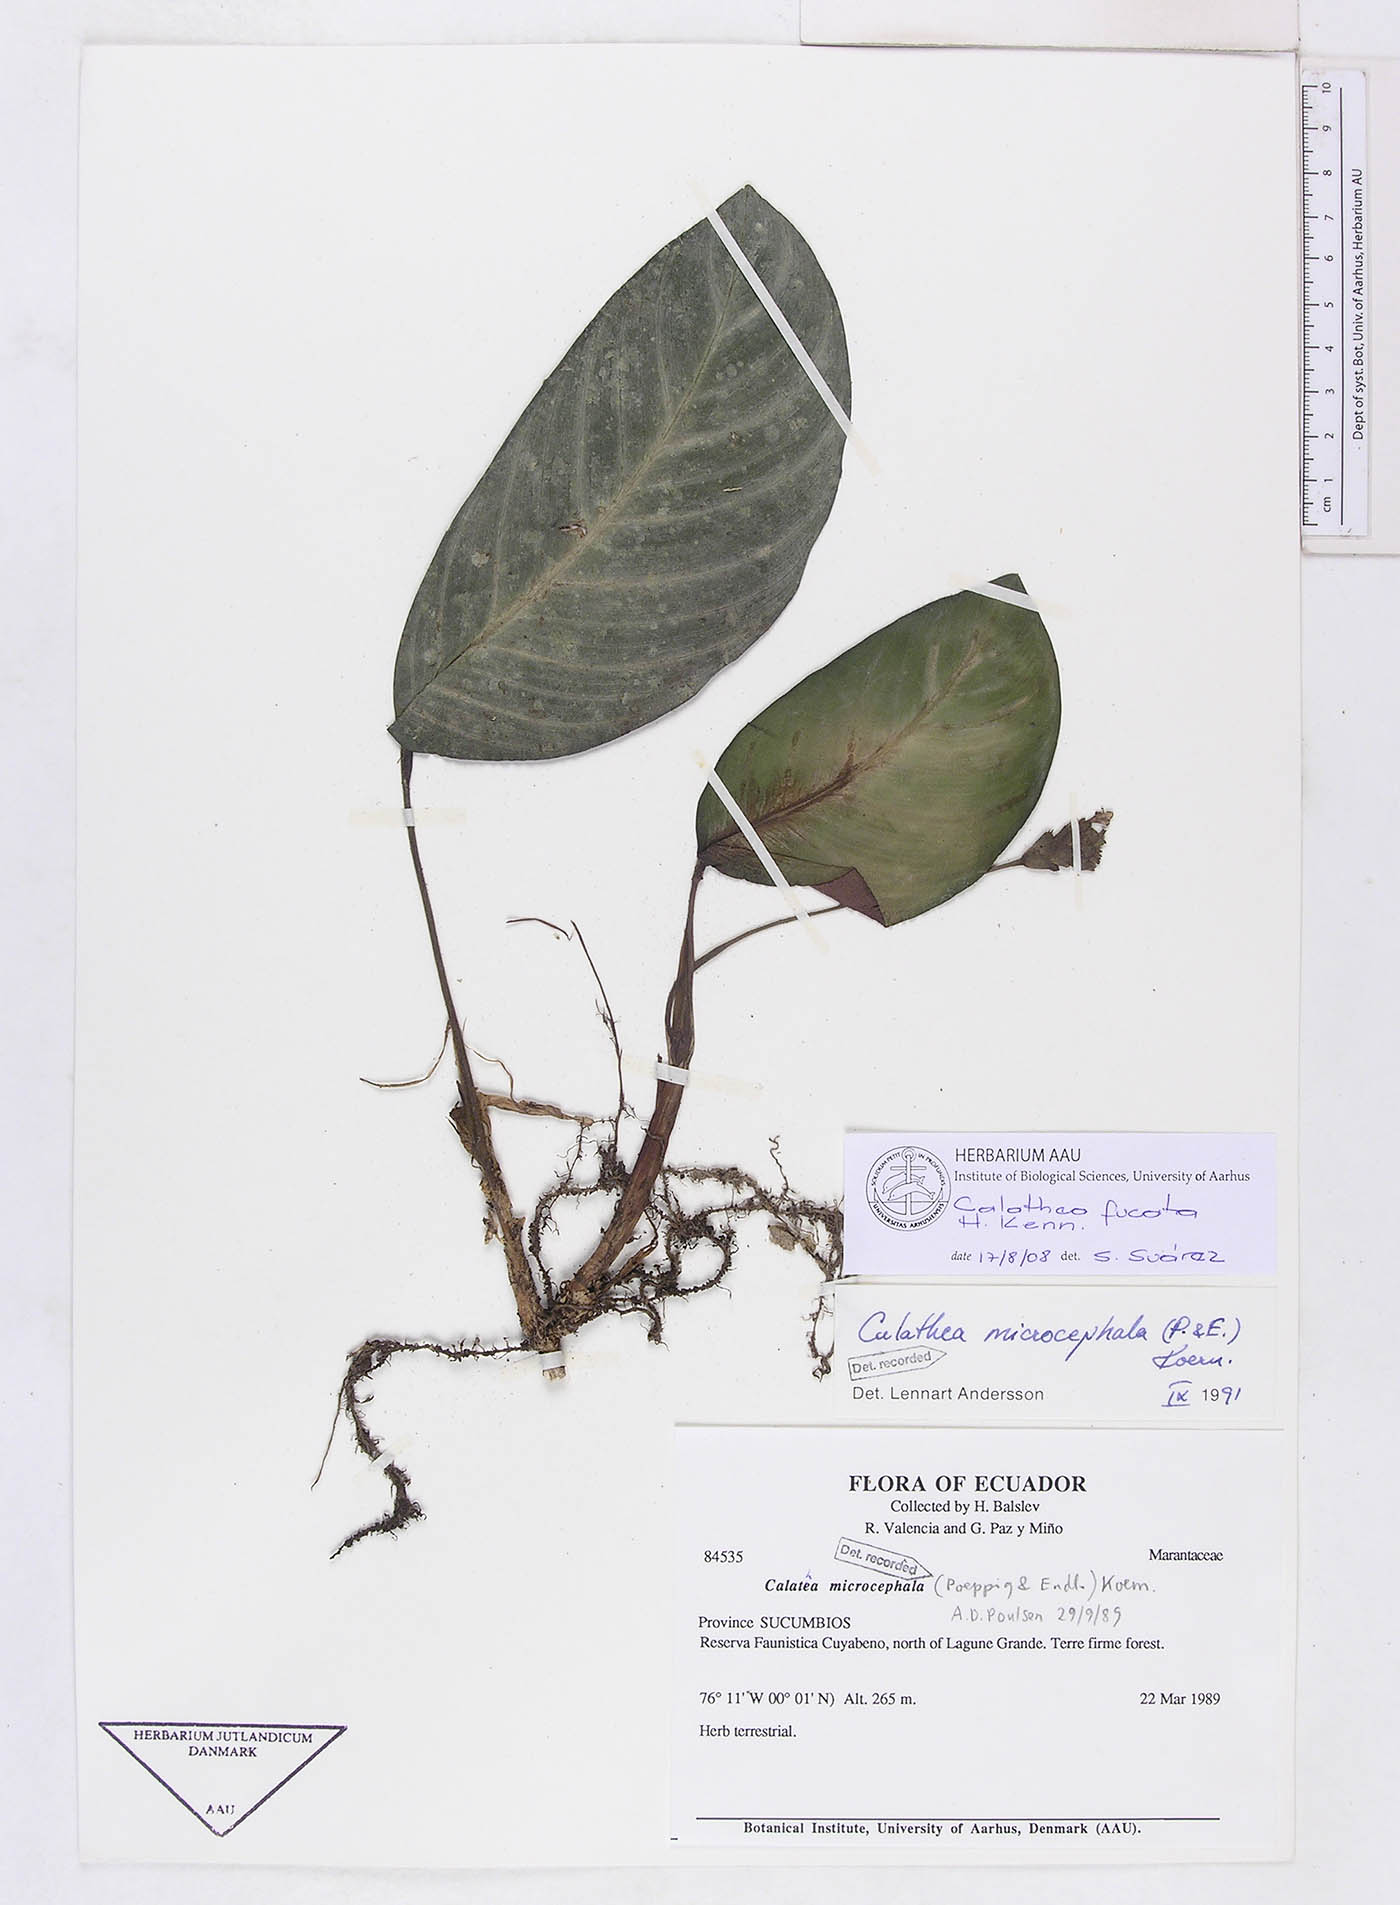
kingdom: Plantae
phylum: Tracheophyta
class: Liliopsida
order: Zingiberales
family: Marantaceae
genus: Goeppertia
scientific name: Goeppertia fucata
